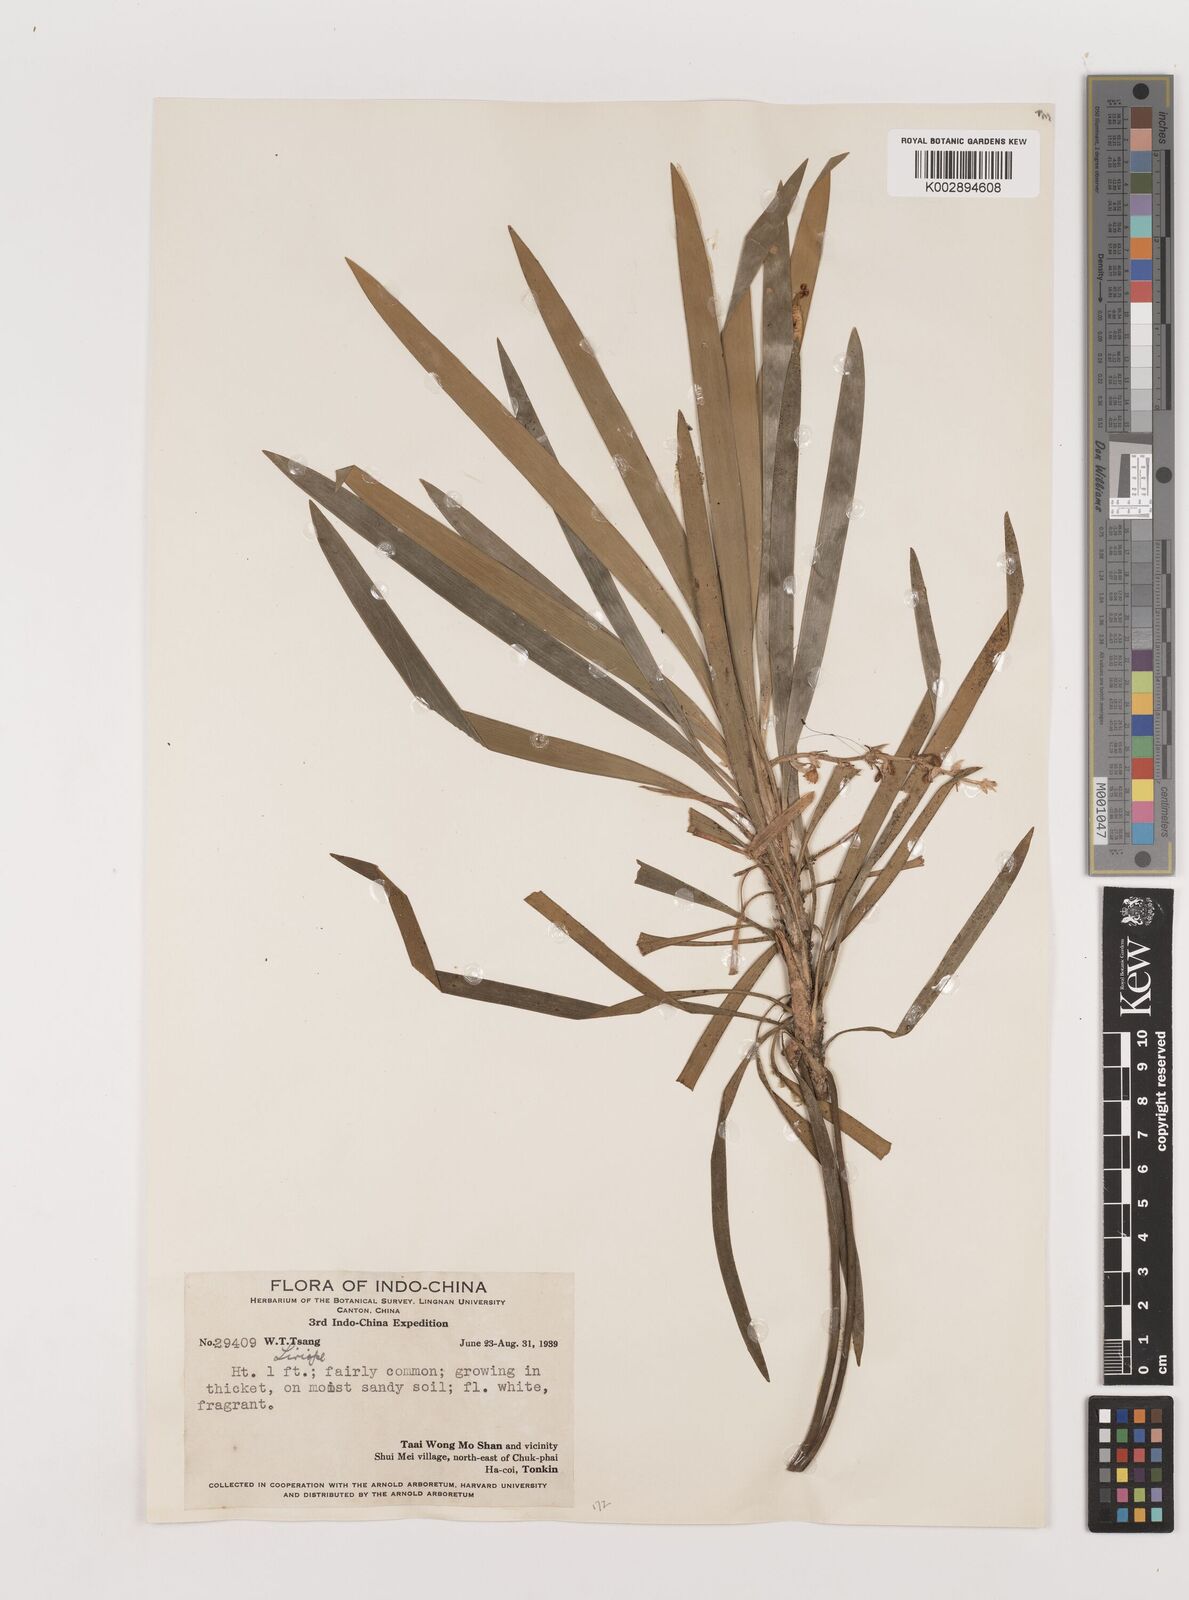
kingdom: Plantae
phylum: Tracheophyta
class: Liliopsida
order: Asparagales
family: Asparagaceae
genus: Liriope
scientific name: Liriope
